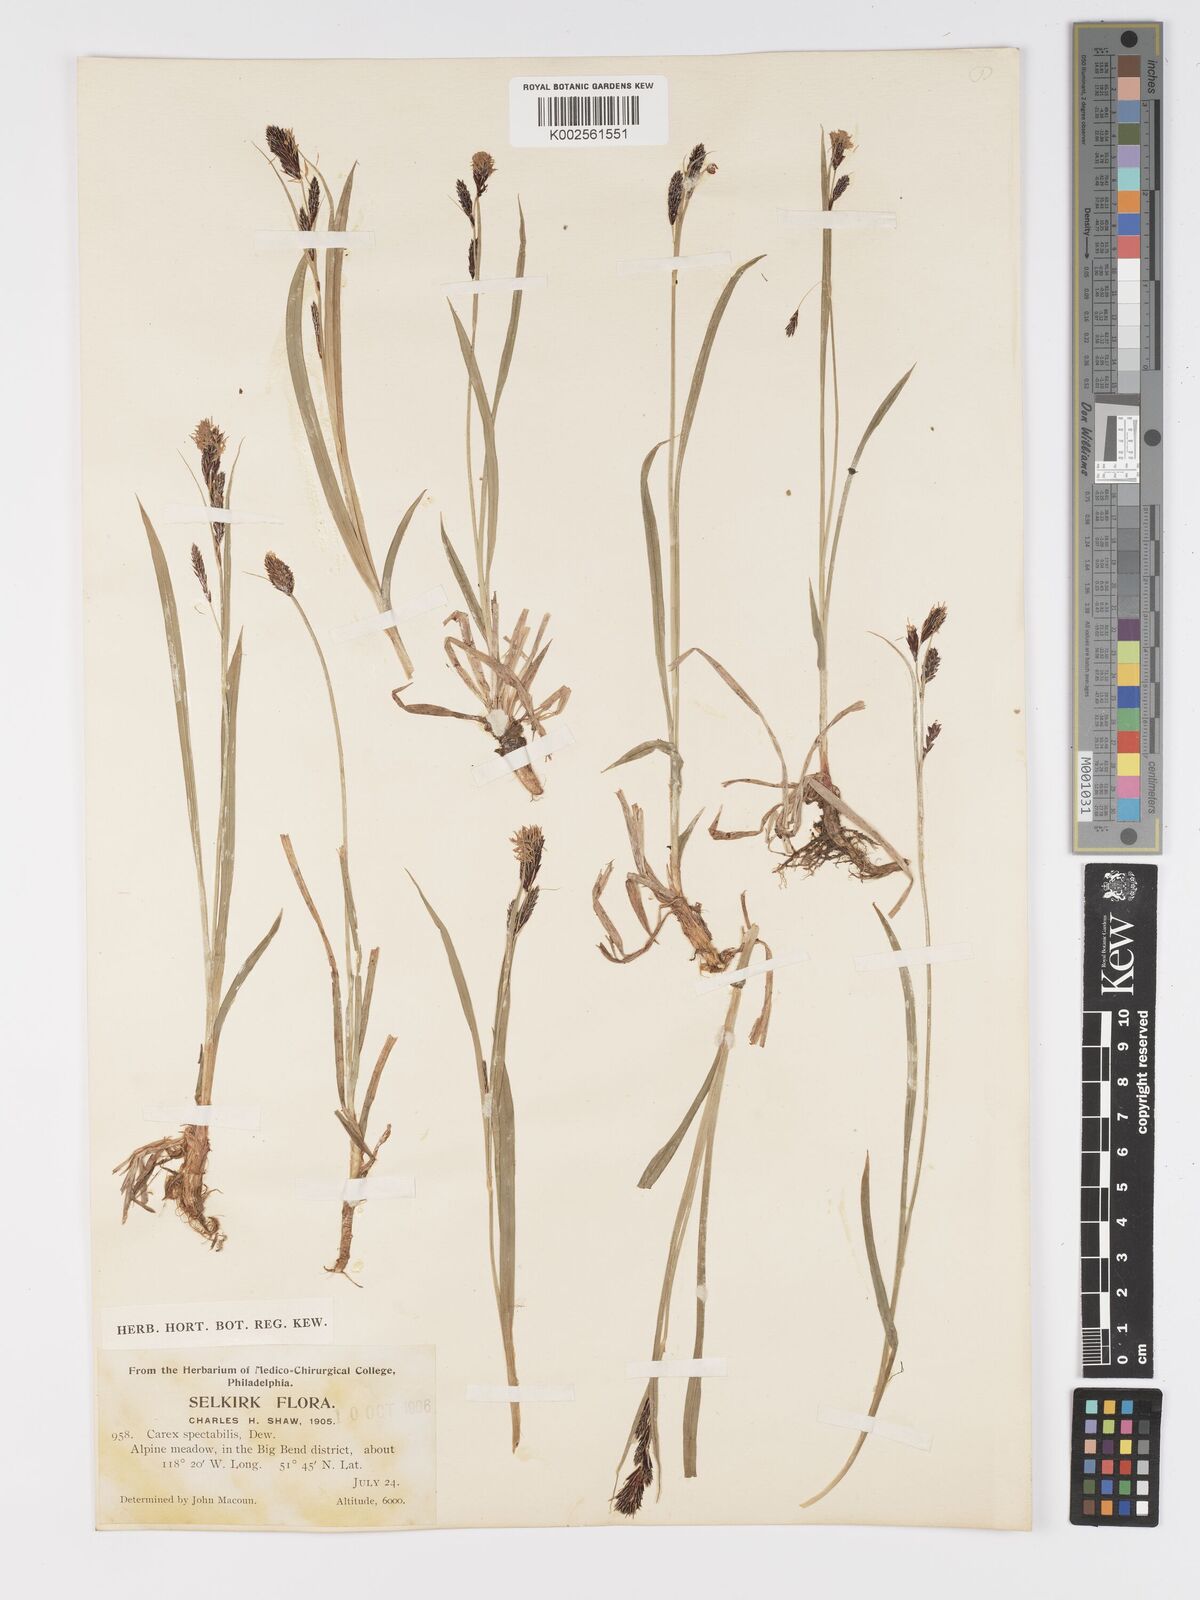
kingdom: Plantae
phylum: Tracheophyta
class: Liliopsida
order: Poales
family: Cyperaceae
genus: Carex
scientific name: Carex spectabilis
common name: Northwestern showy sedge
